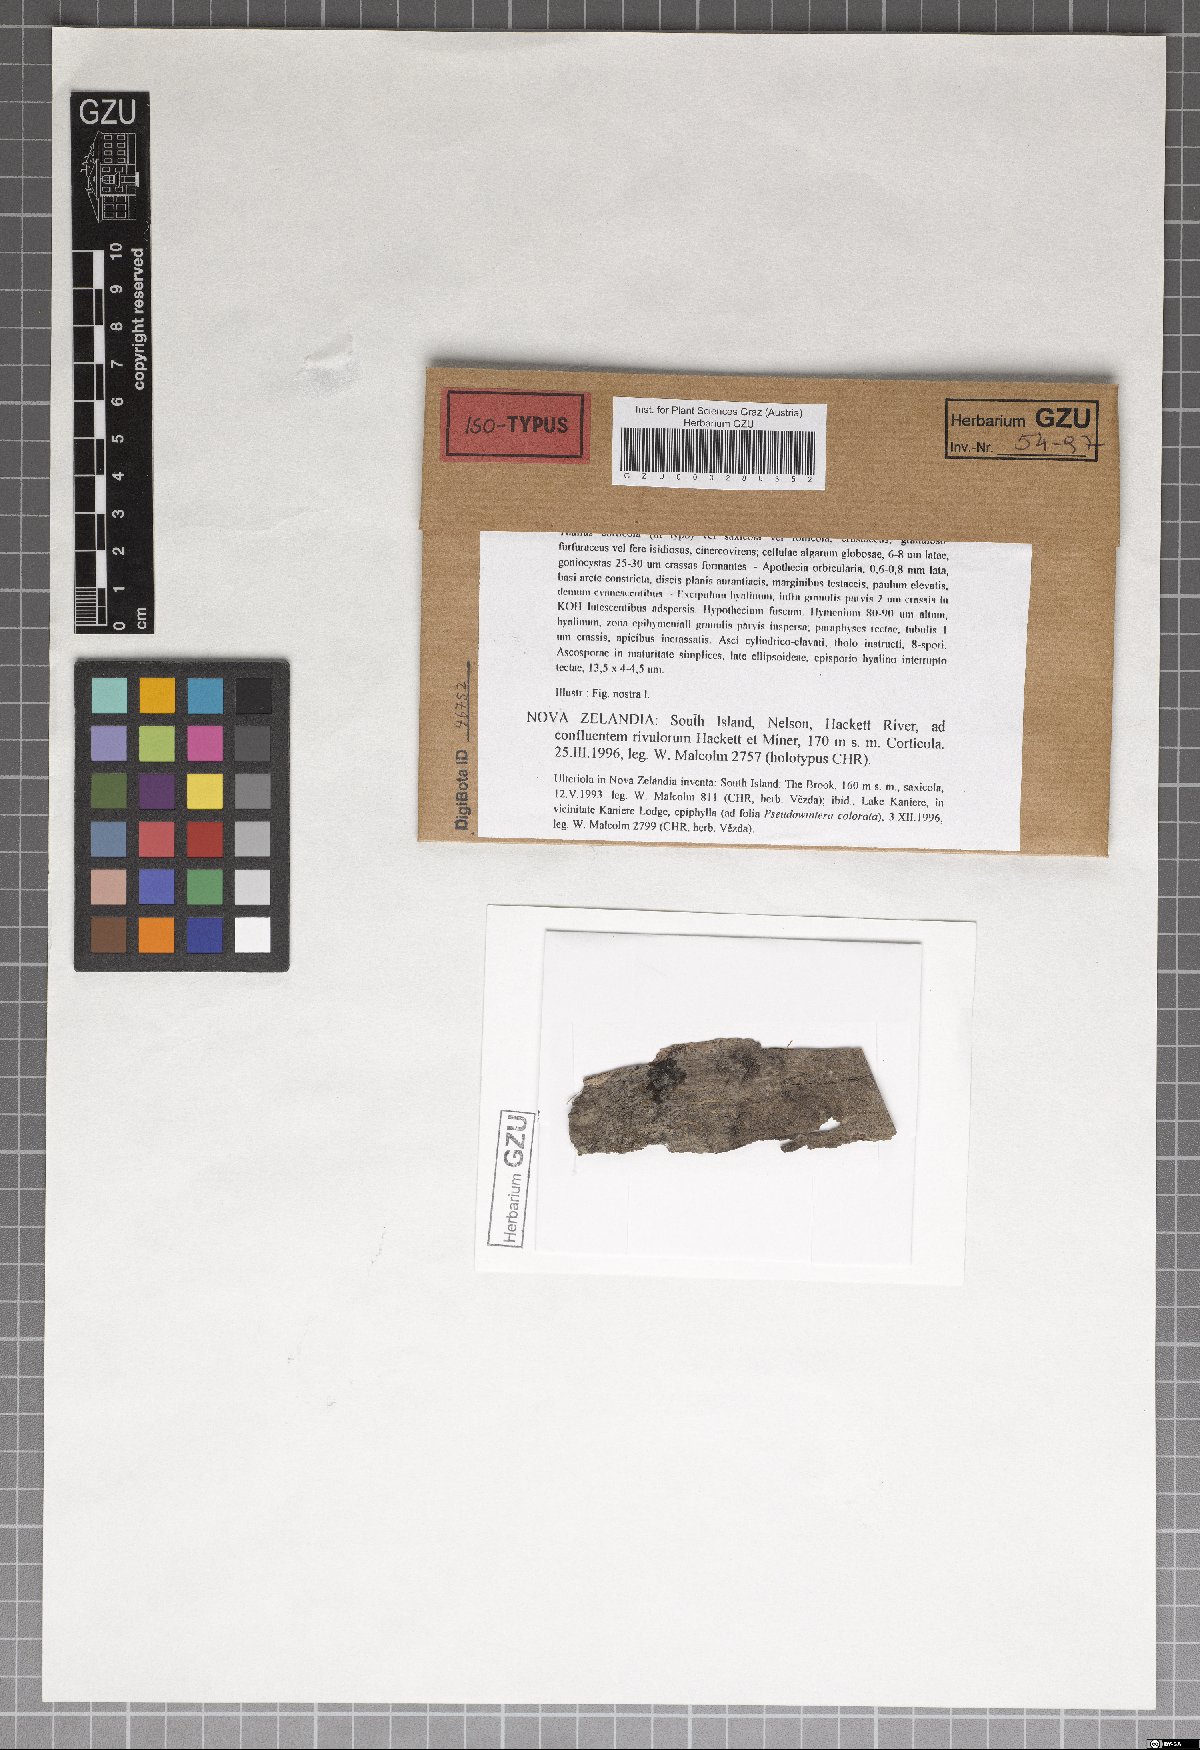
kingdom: Fungi
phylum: Ascomycota
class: Lecanoromycetes
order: Teloschistales
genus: Malcolmiella
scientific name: Malcolmiella cinereovirens
